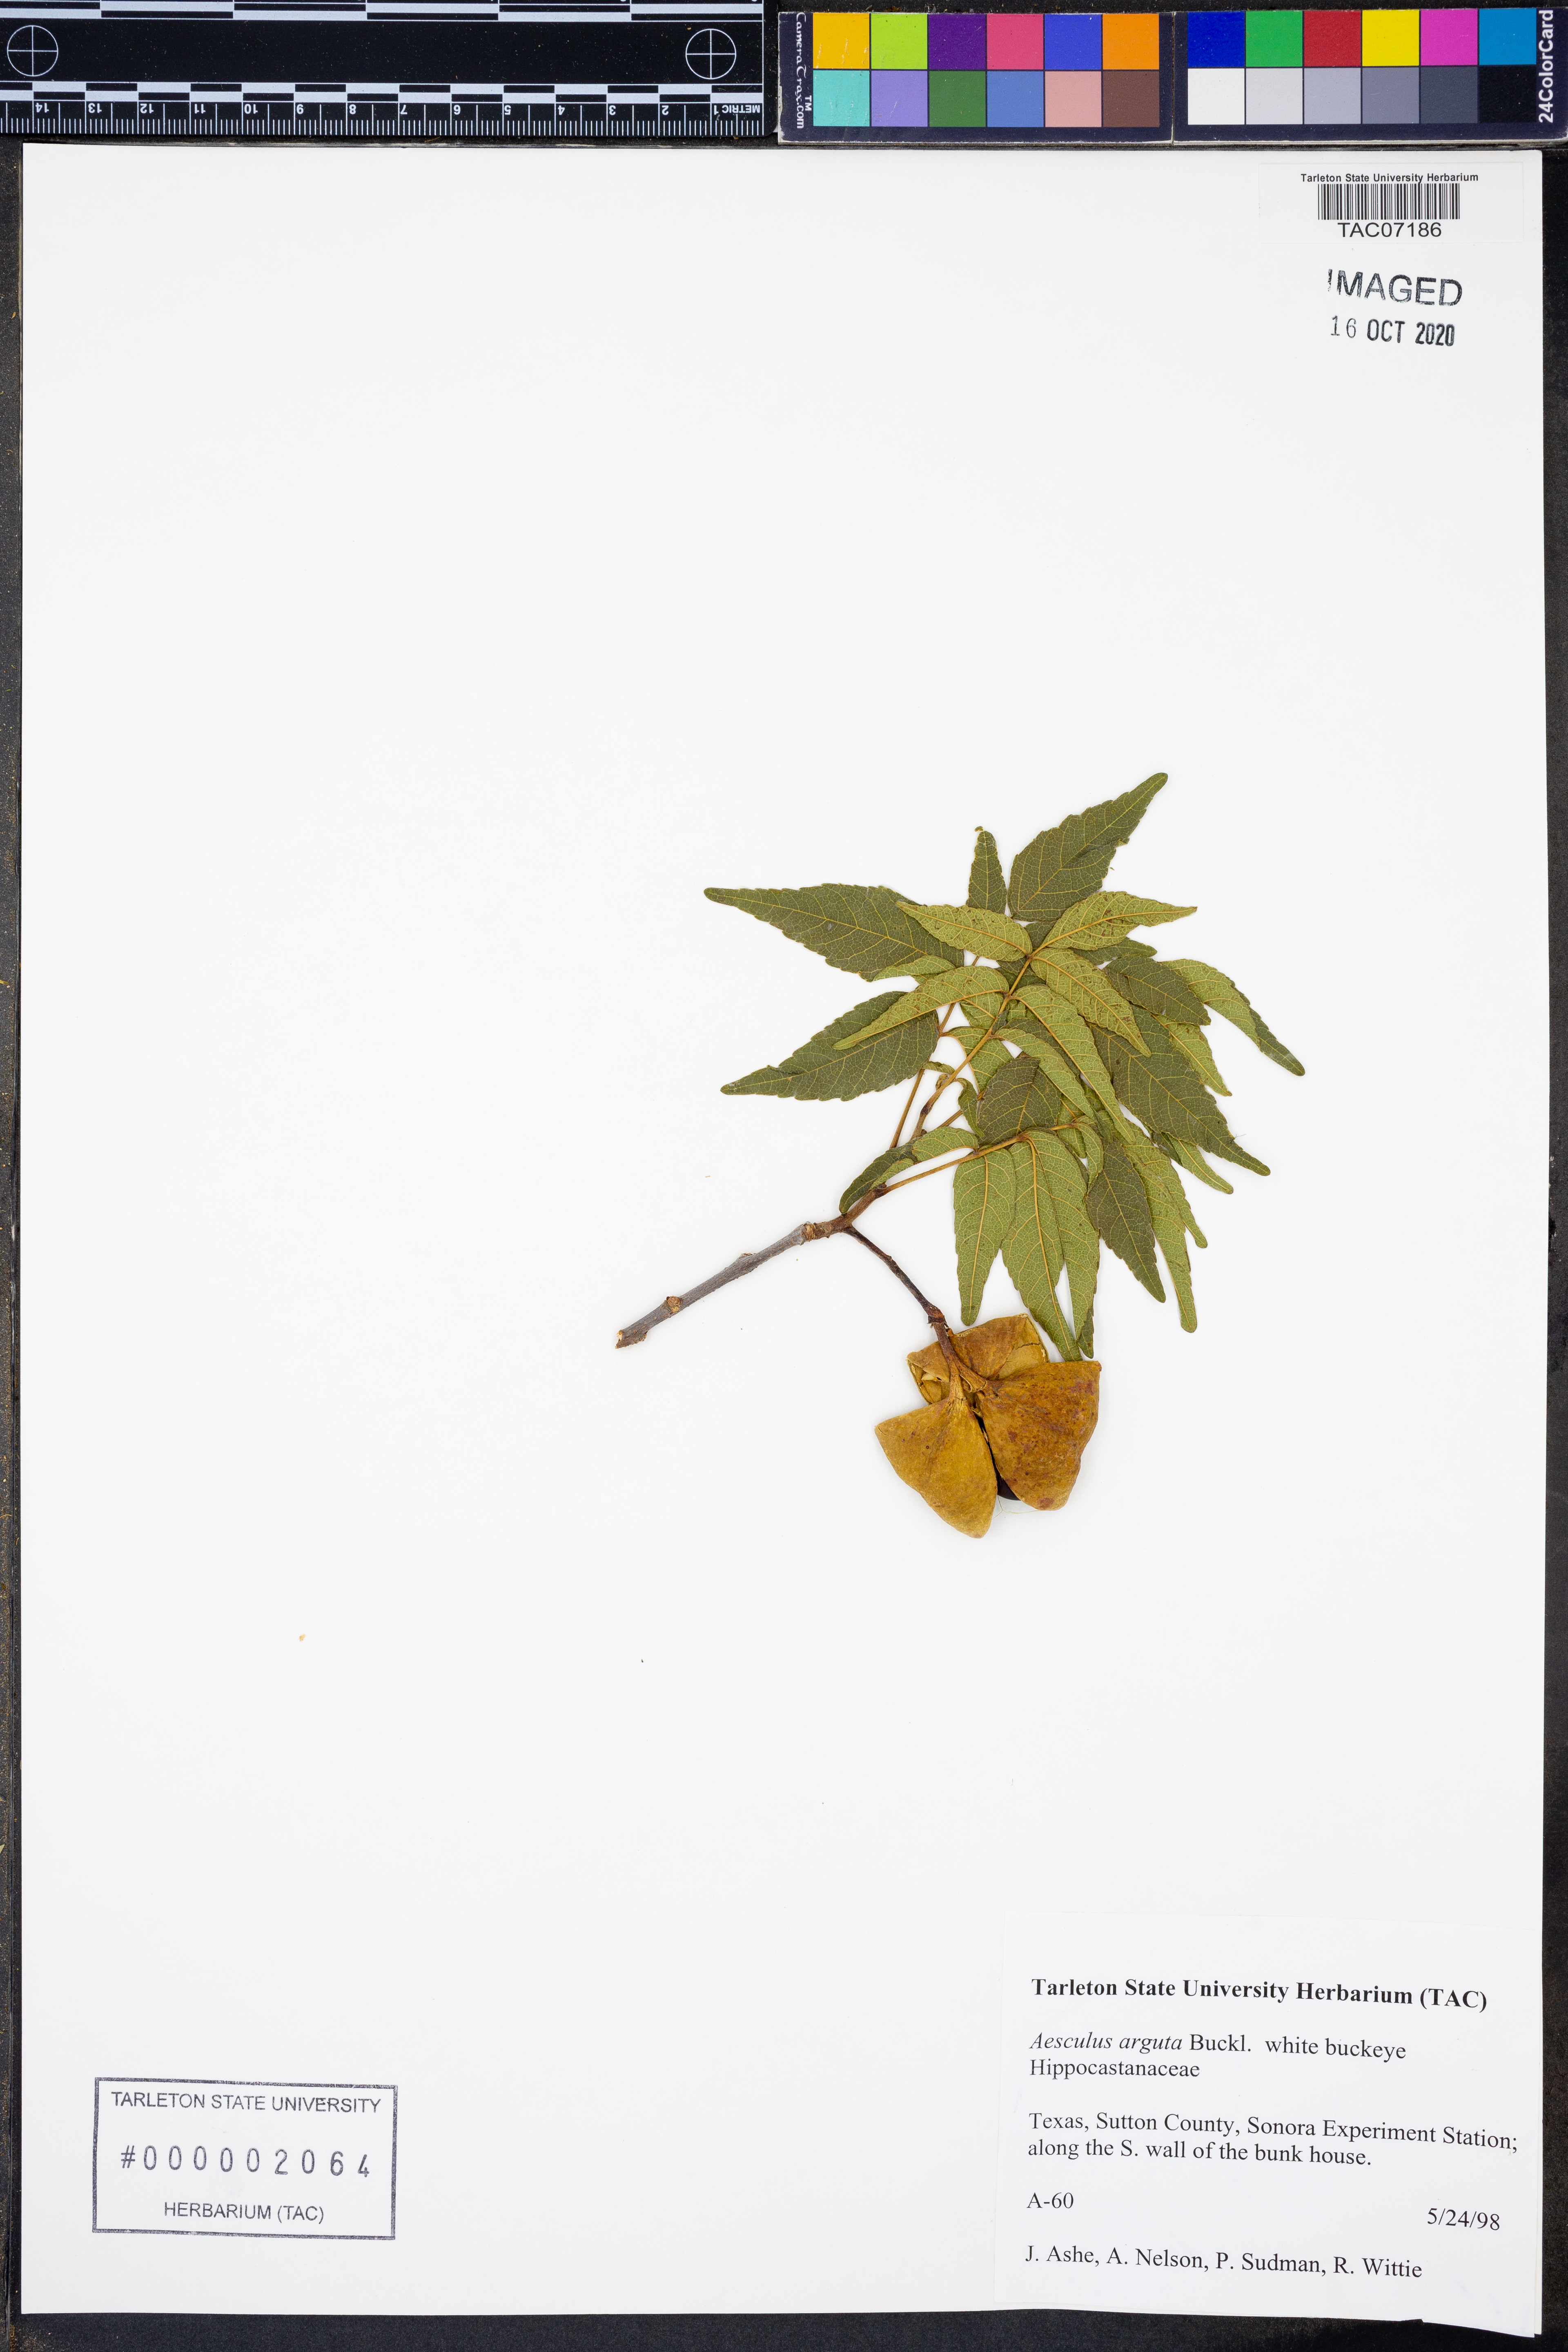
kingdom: Plantae
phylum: Tracheophyta
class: Magnoliopsida
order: Sapindales
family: Sapindaceae
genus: Aesculus
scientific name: Aesculus glabra
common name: Ohio buckeye
